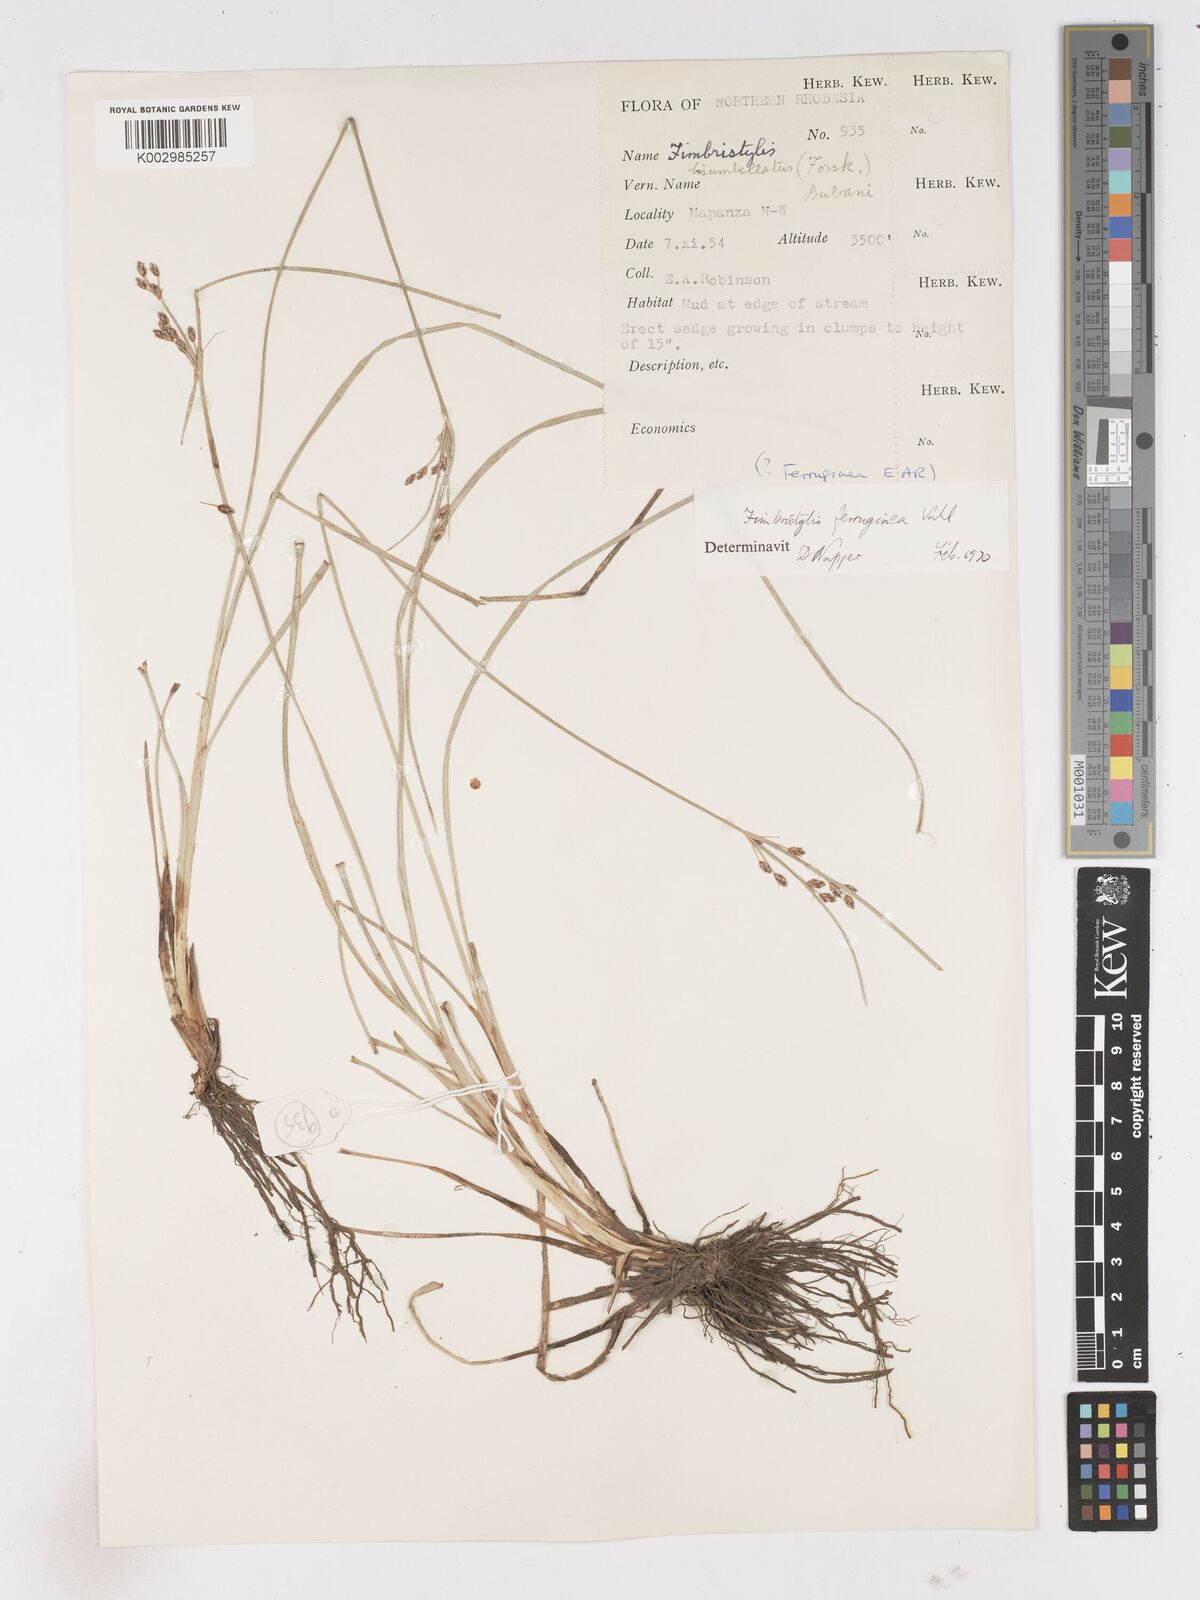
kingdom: Plantae
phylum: Tracheophyta
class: Liliopsida
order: Poales
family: Cyperaceae
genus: Fimbristylis
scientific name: Fimbristylis ferruginea
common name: West indian fimbry
